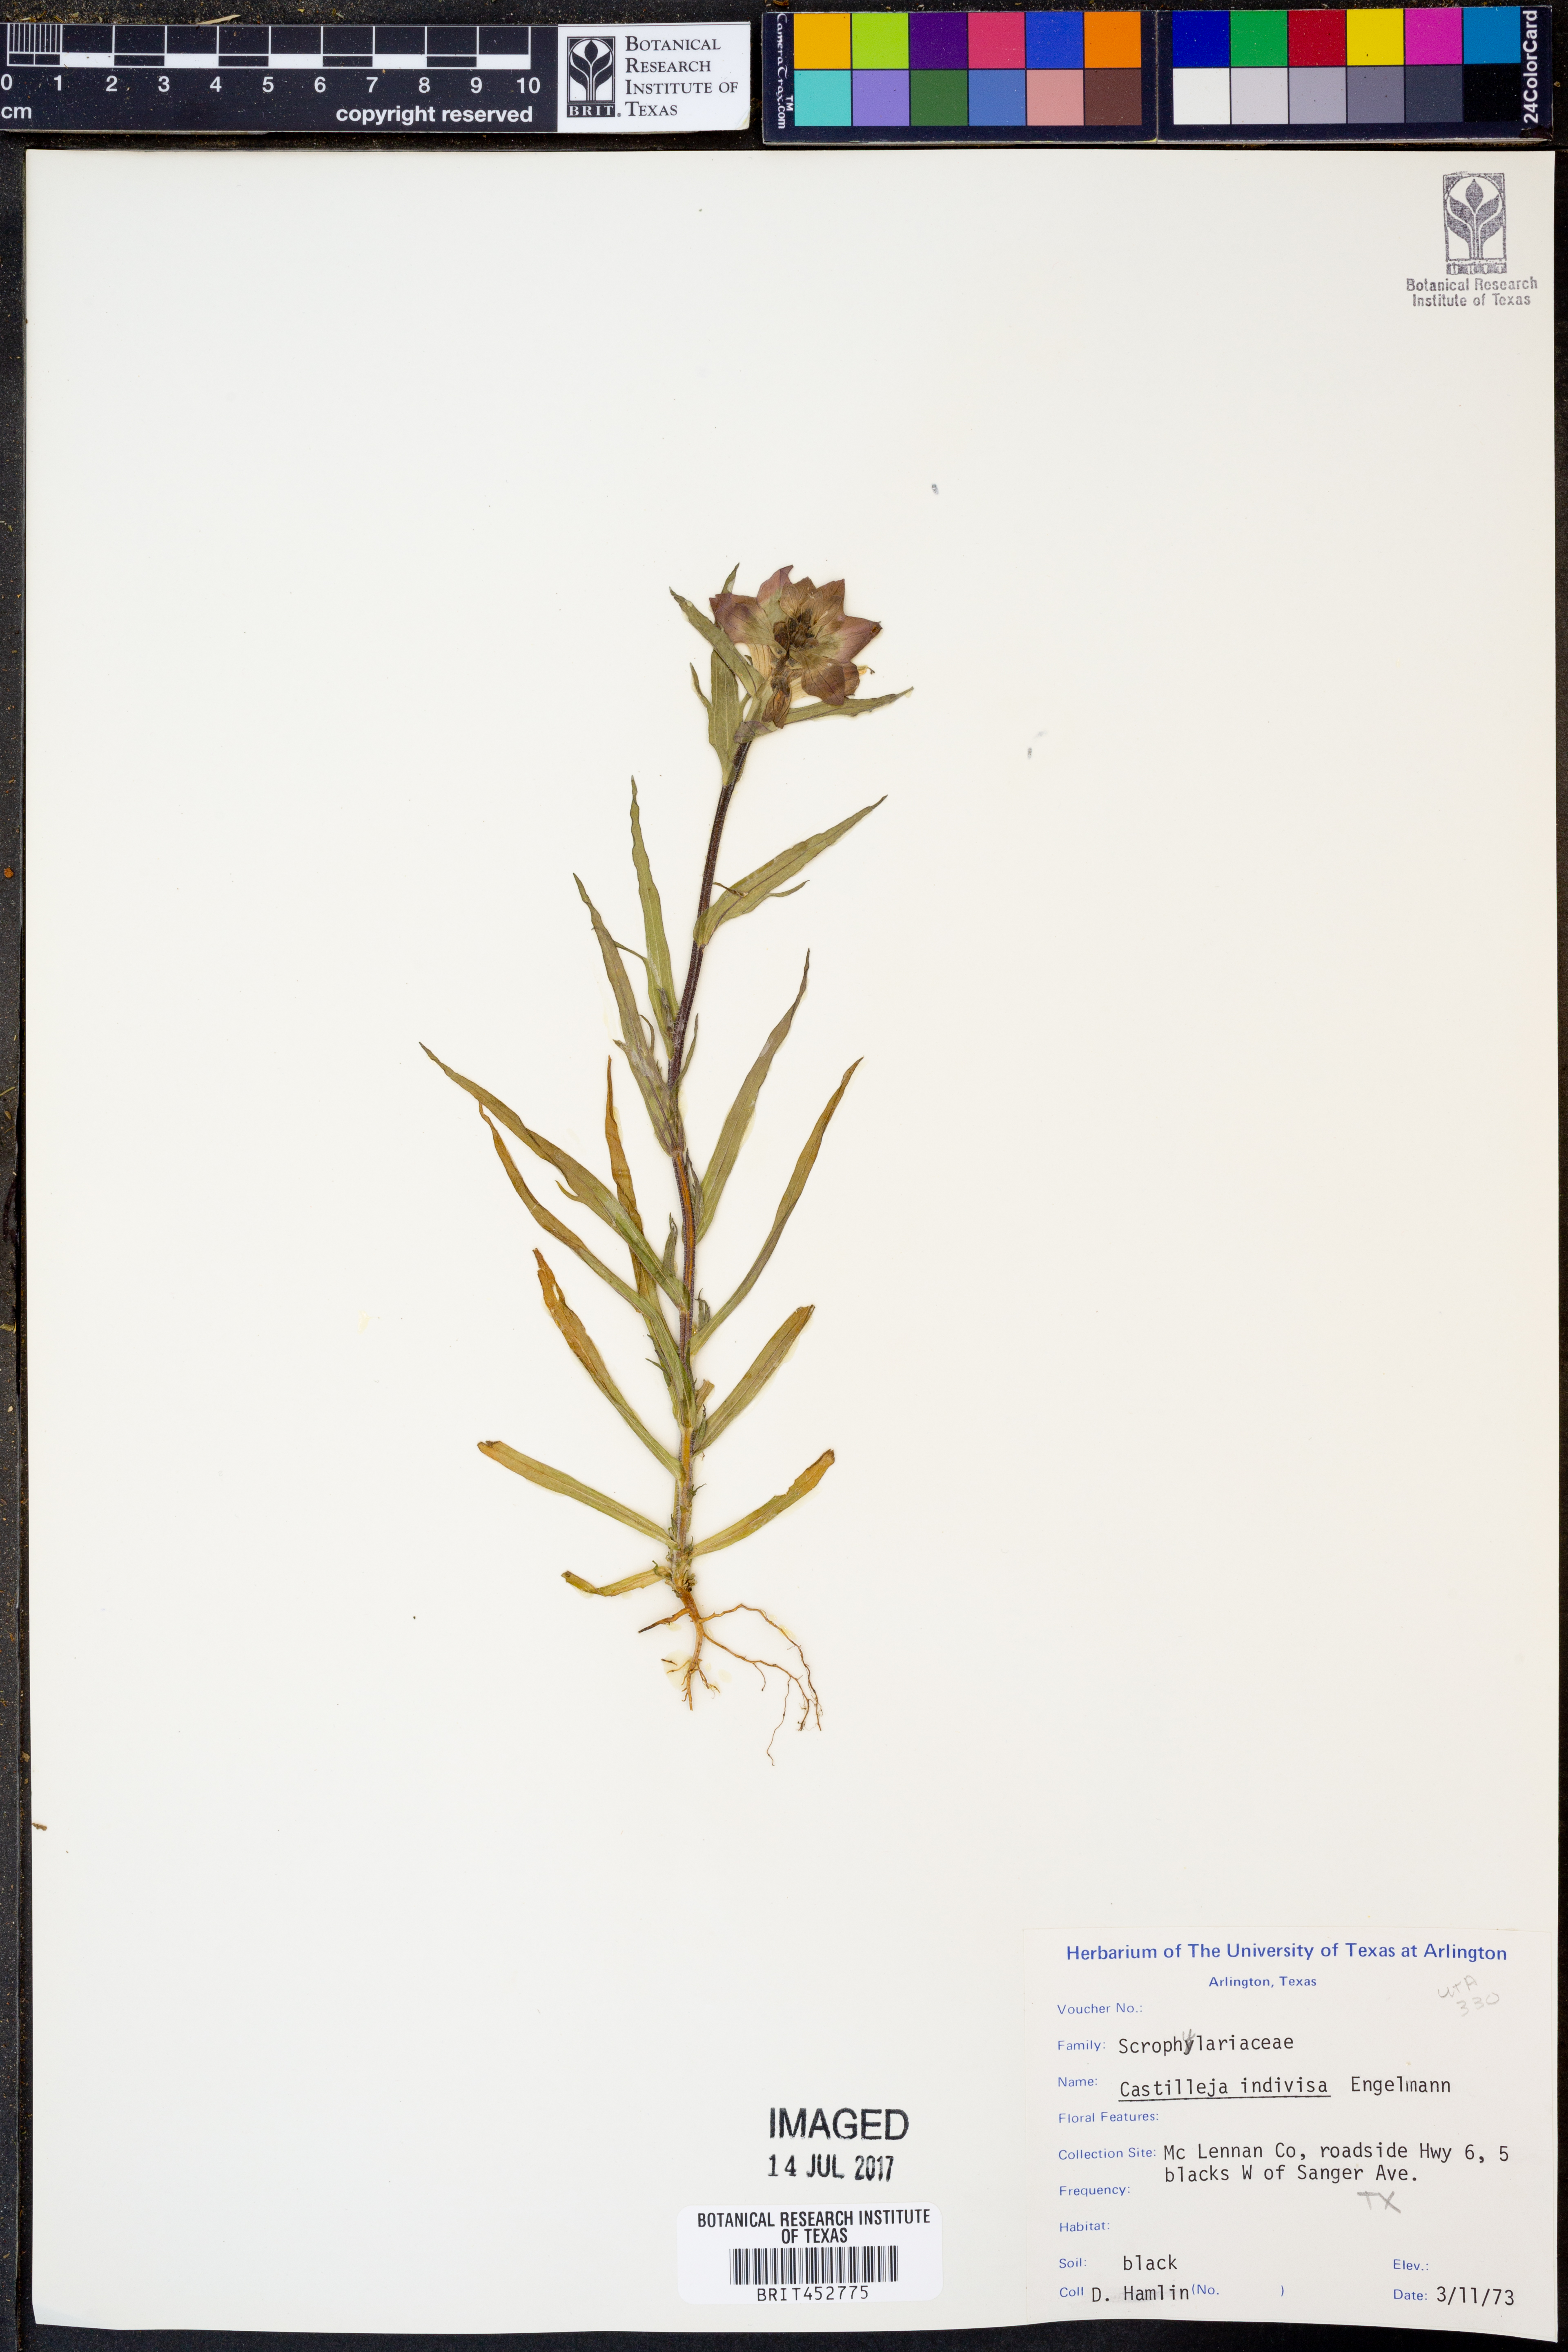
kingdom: Plantae
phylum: Tracheophyta
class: Magnoliopsida
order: Lamiales
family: Orobanchaceae
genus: Castilleja
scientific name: Castilleja indivisa
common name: Texas paintbrush
